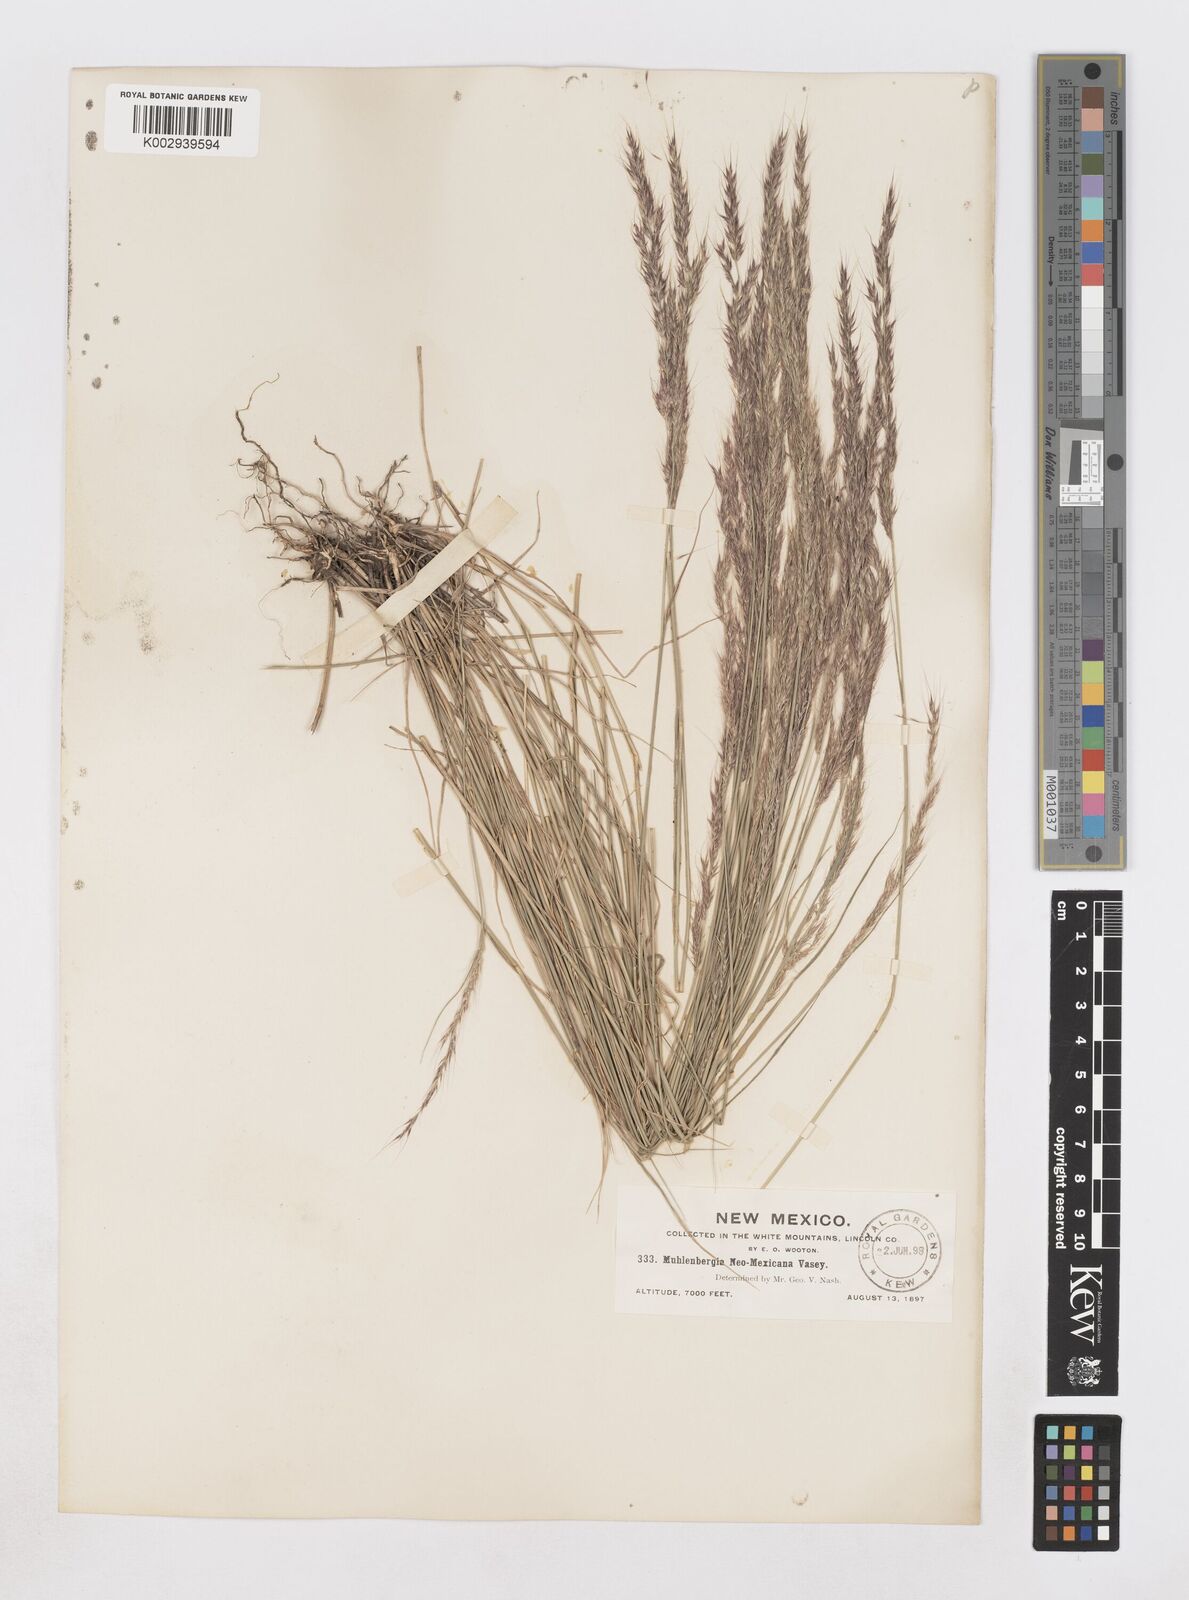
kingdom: Plantae
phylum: Tracheophyta
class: Liliopsida
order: Poales
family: Poaceae
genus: Muhlenbergia
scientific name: Muhlenbergia pauciflora
